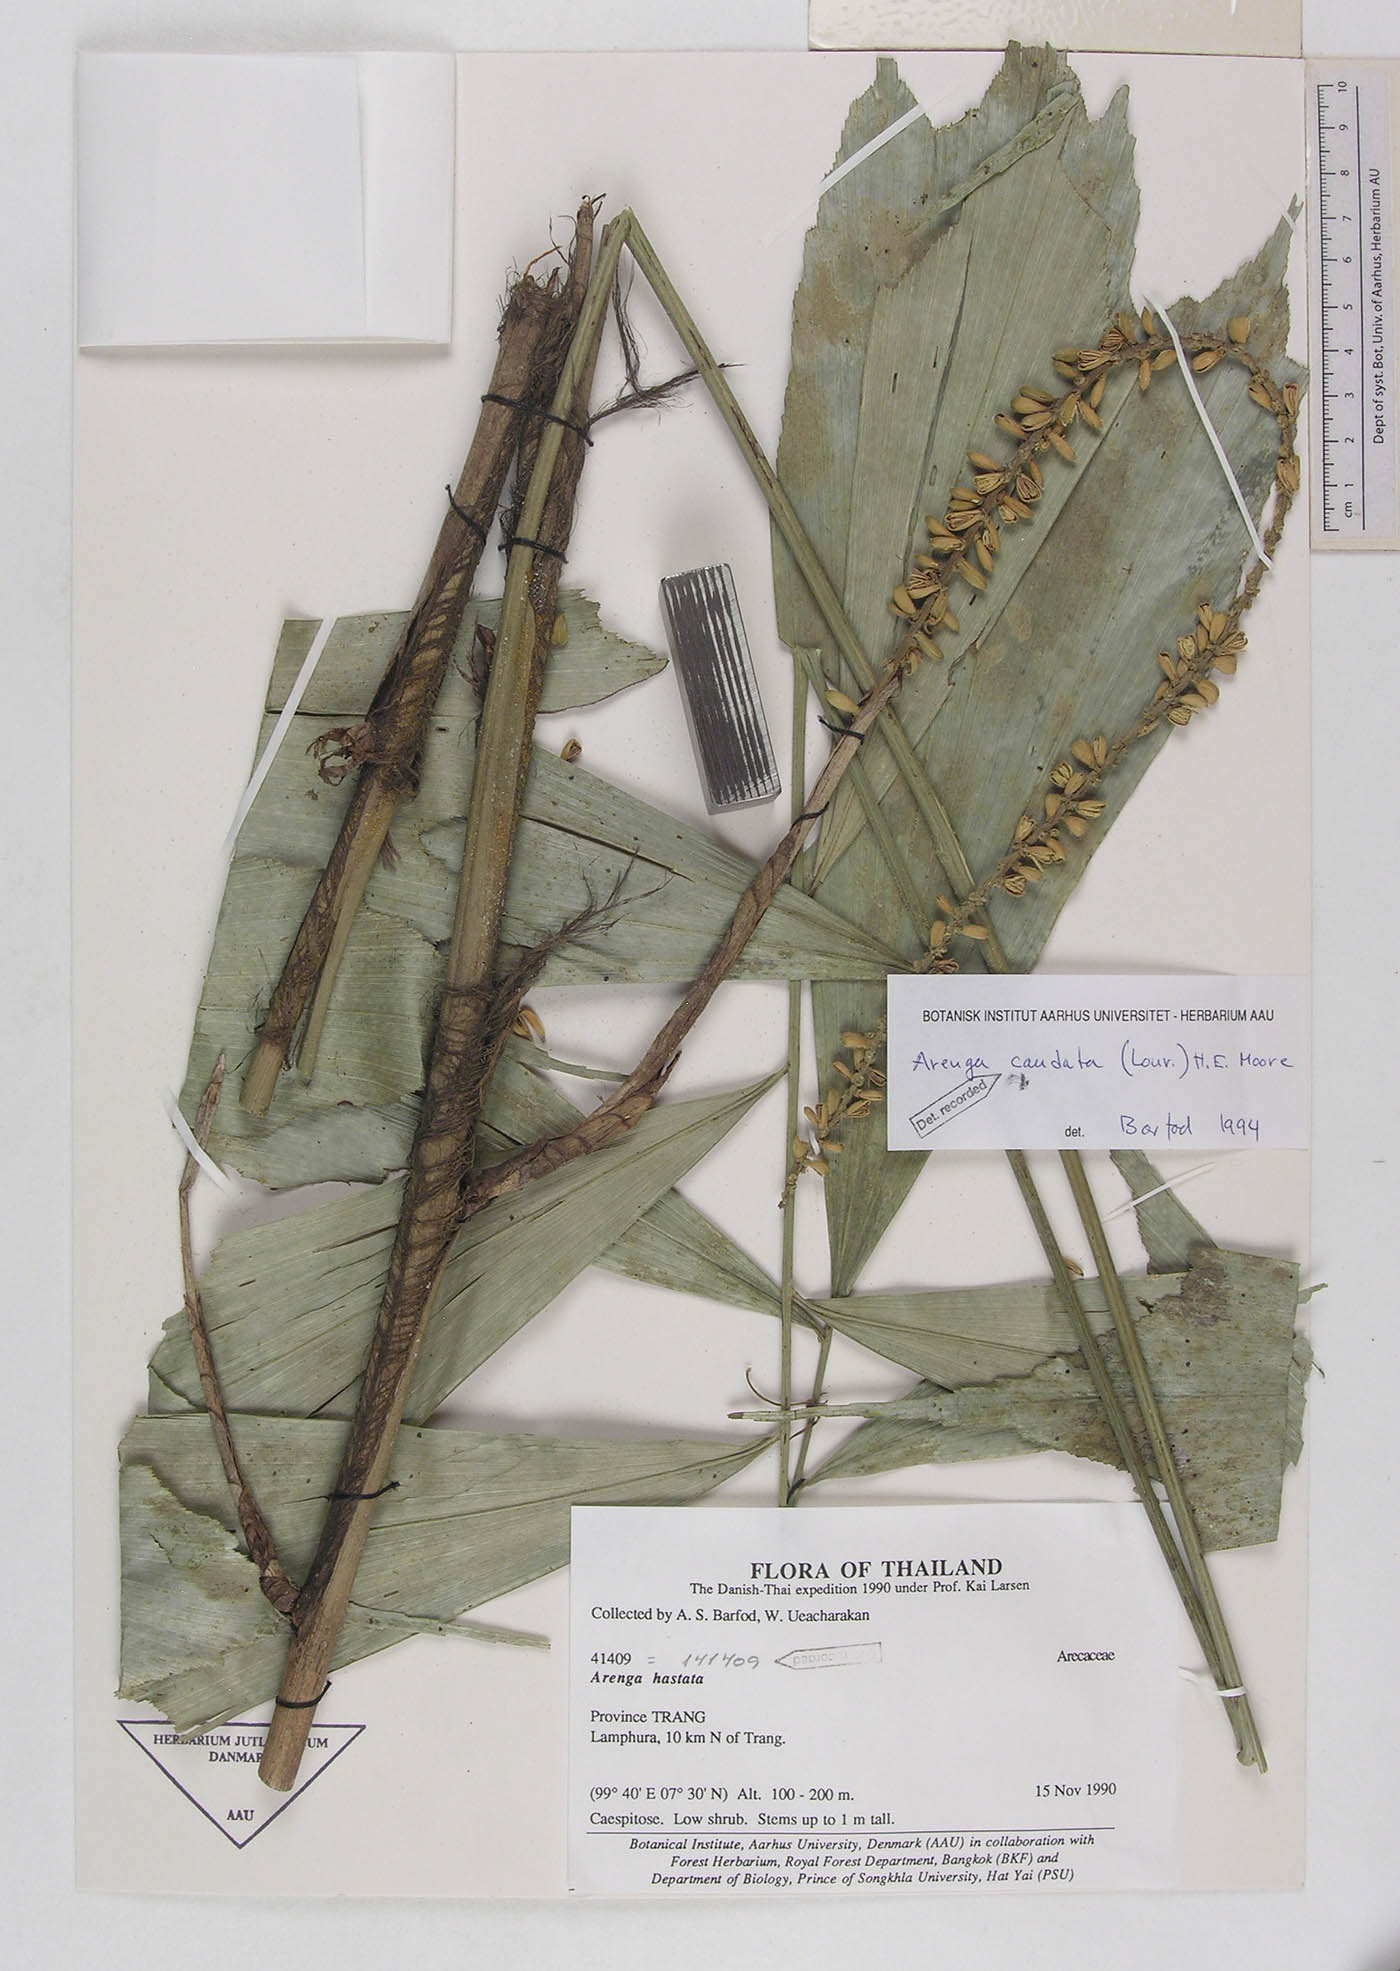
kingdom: Plantae
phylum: Tracheophyta
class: Liliopsida
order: Arecales
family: Arecaceae
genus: Arenga
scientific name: Arenga caudata
